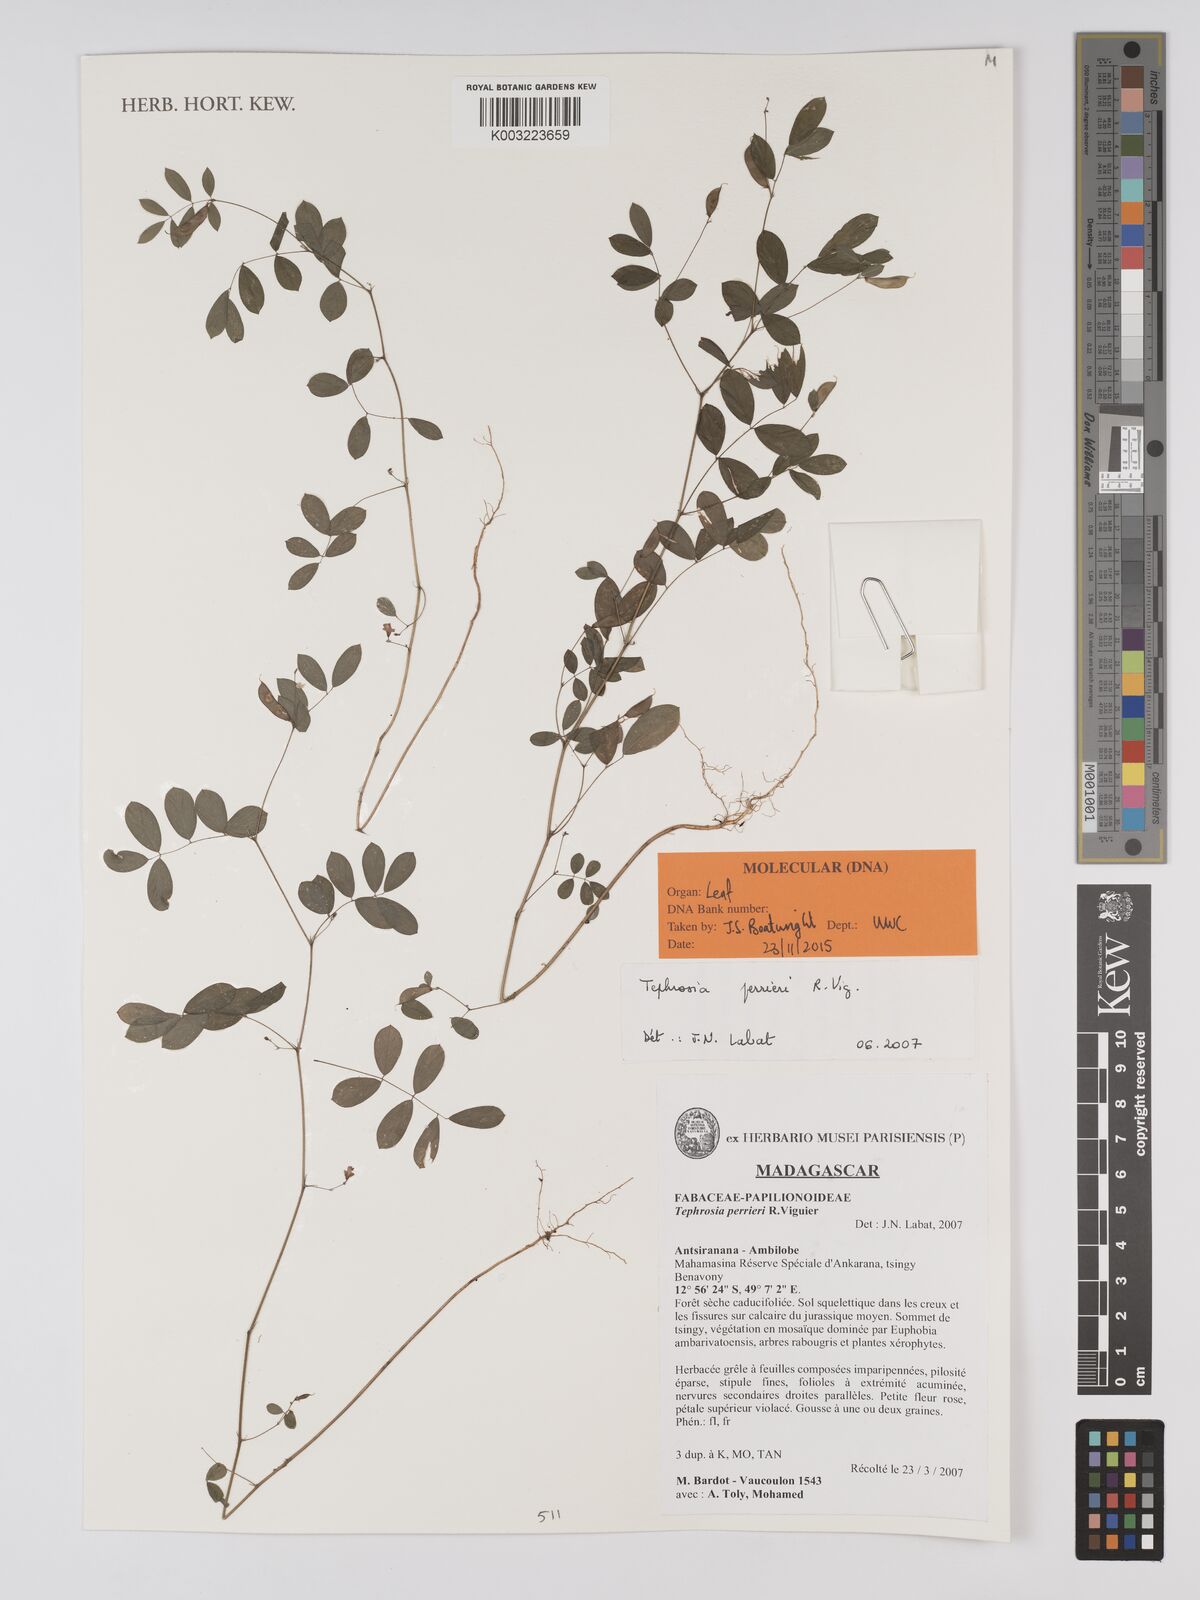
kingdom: Plantae
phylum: Tracheophyta
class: Magnoliopsida
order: Fabales
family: Fabaceae
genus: Tephrosia
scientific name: Tephrosia perrieri
